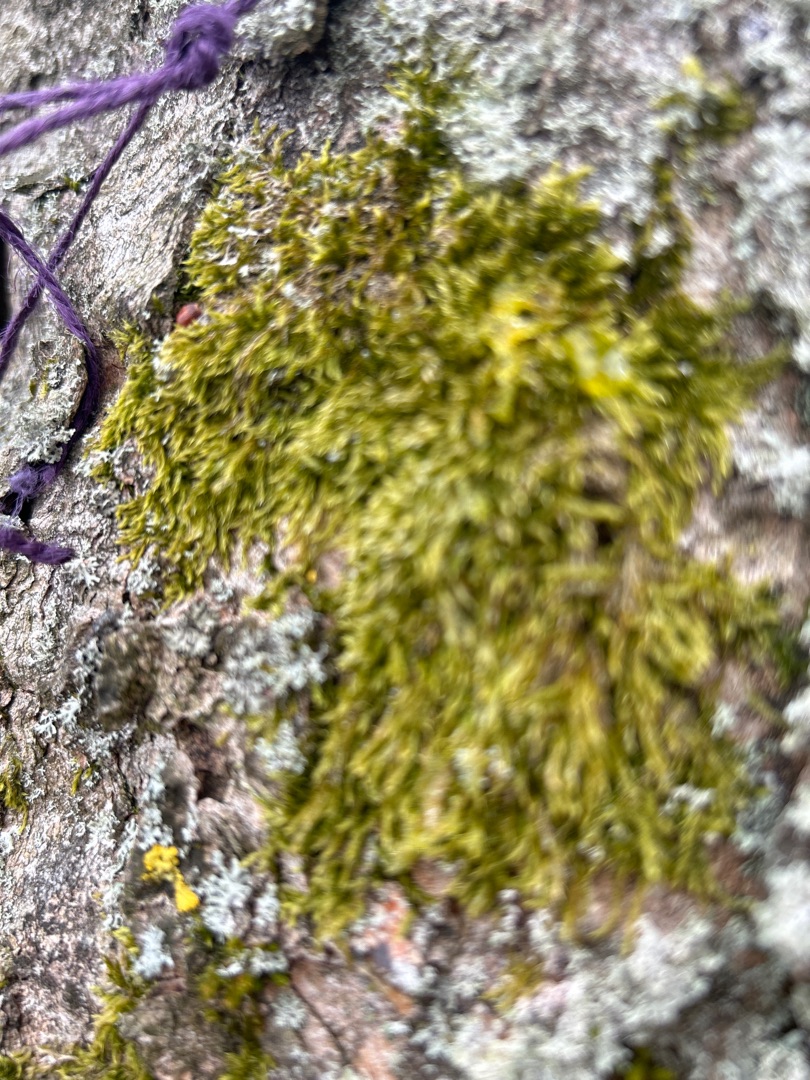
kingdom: Plantae
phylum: Bryophyta
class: Bryopsida
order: Hypnales
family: Hypnaceae
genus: Hypnum
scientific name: Hypnum
